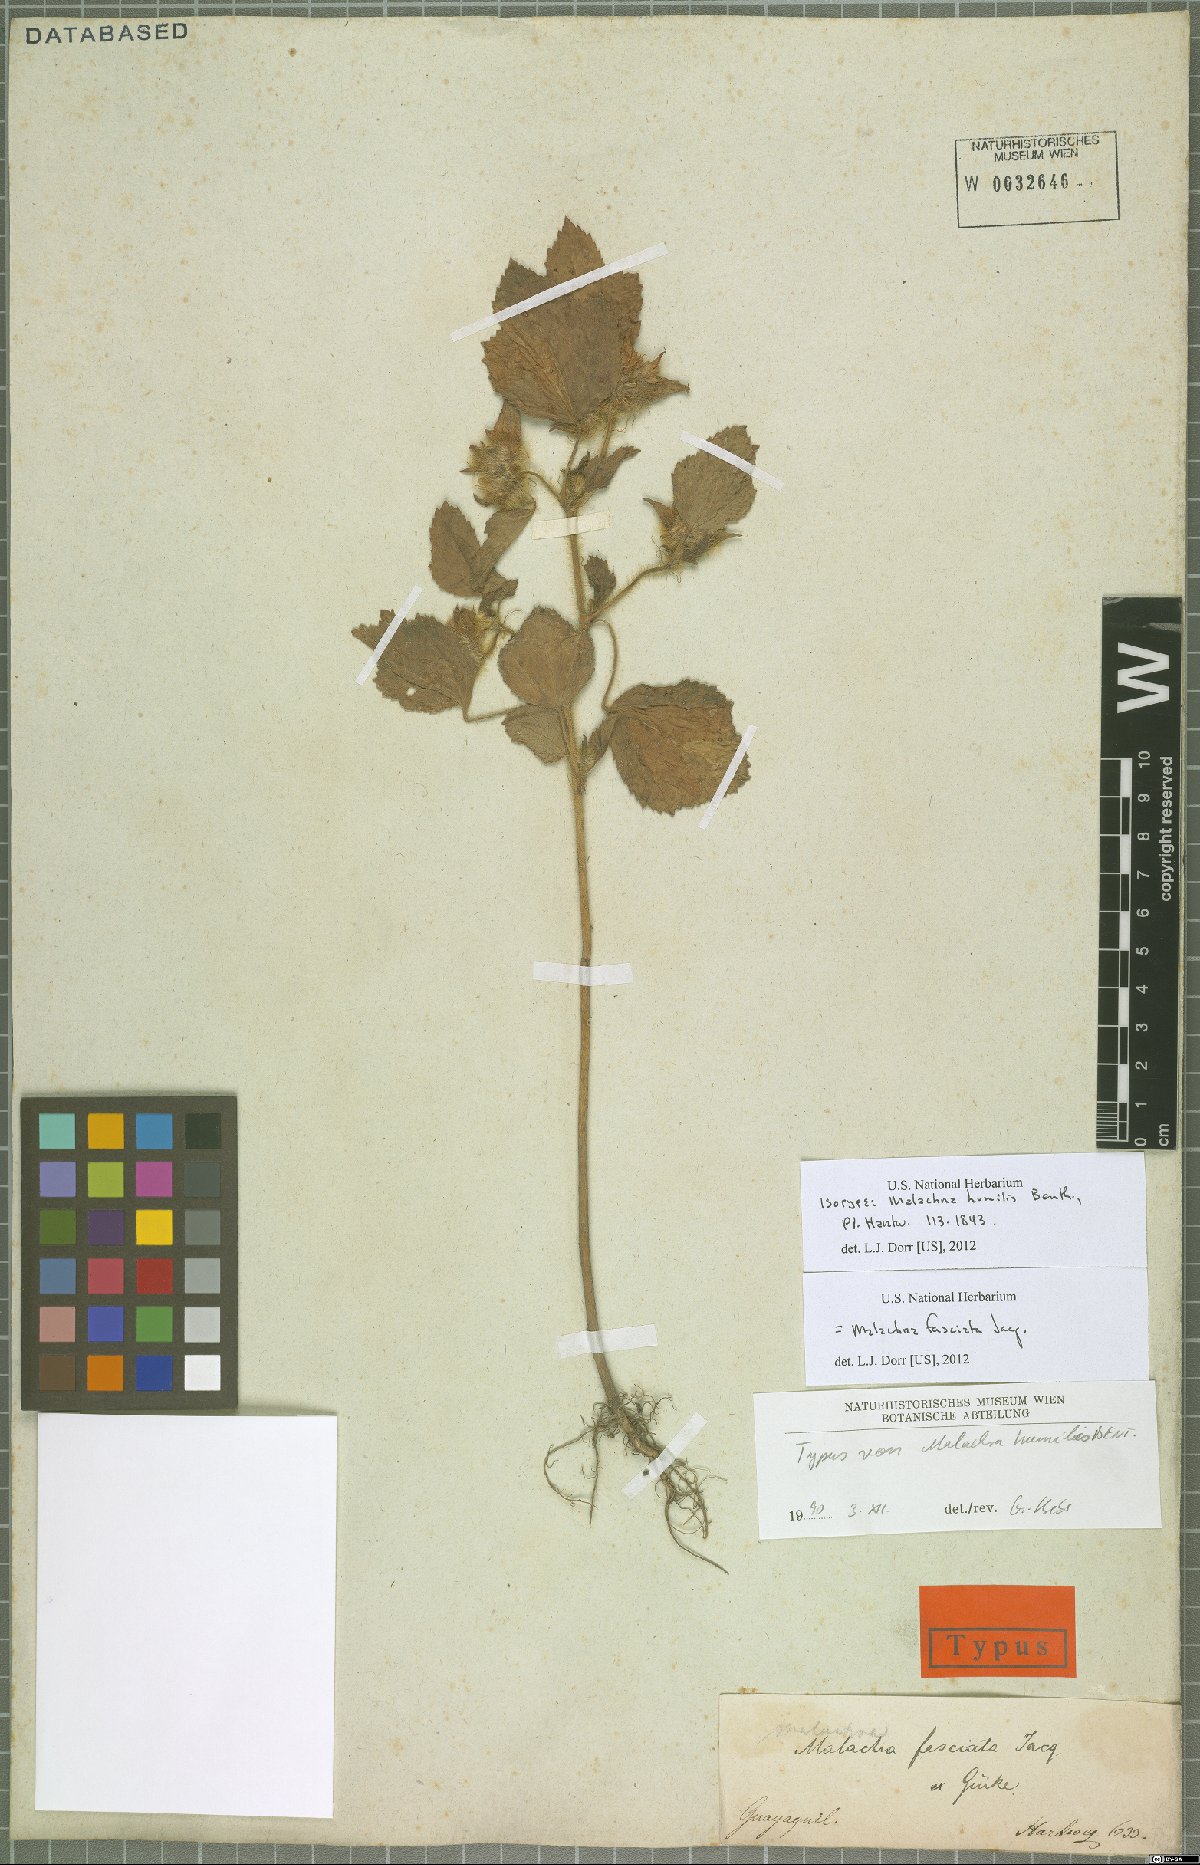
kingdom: Plantae
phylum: Tracheophyta
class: Magnoliopsida
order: Malvales
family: Malvaceae
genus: Malachra
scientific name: Malachra fasciata
